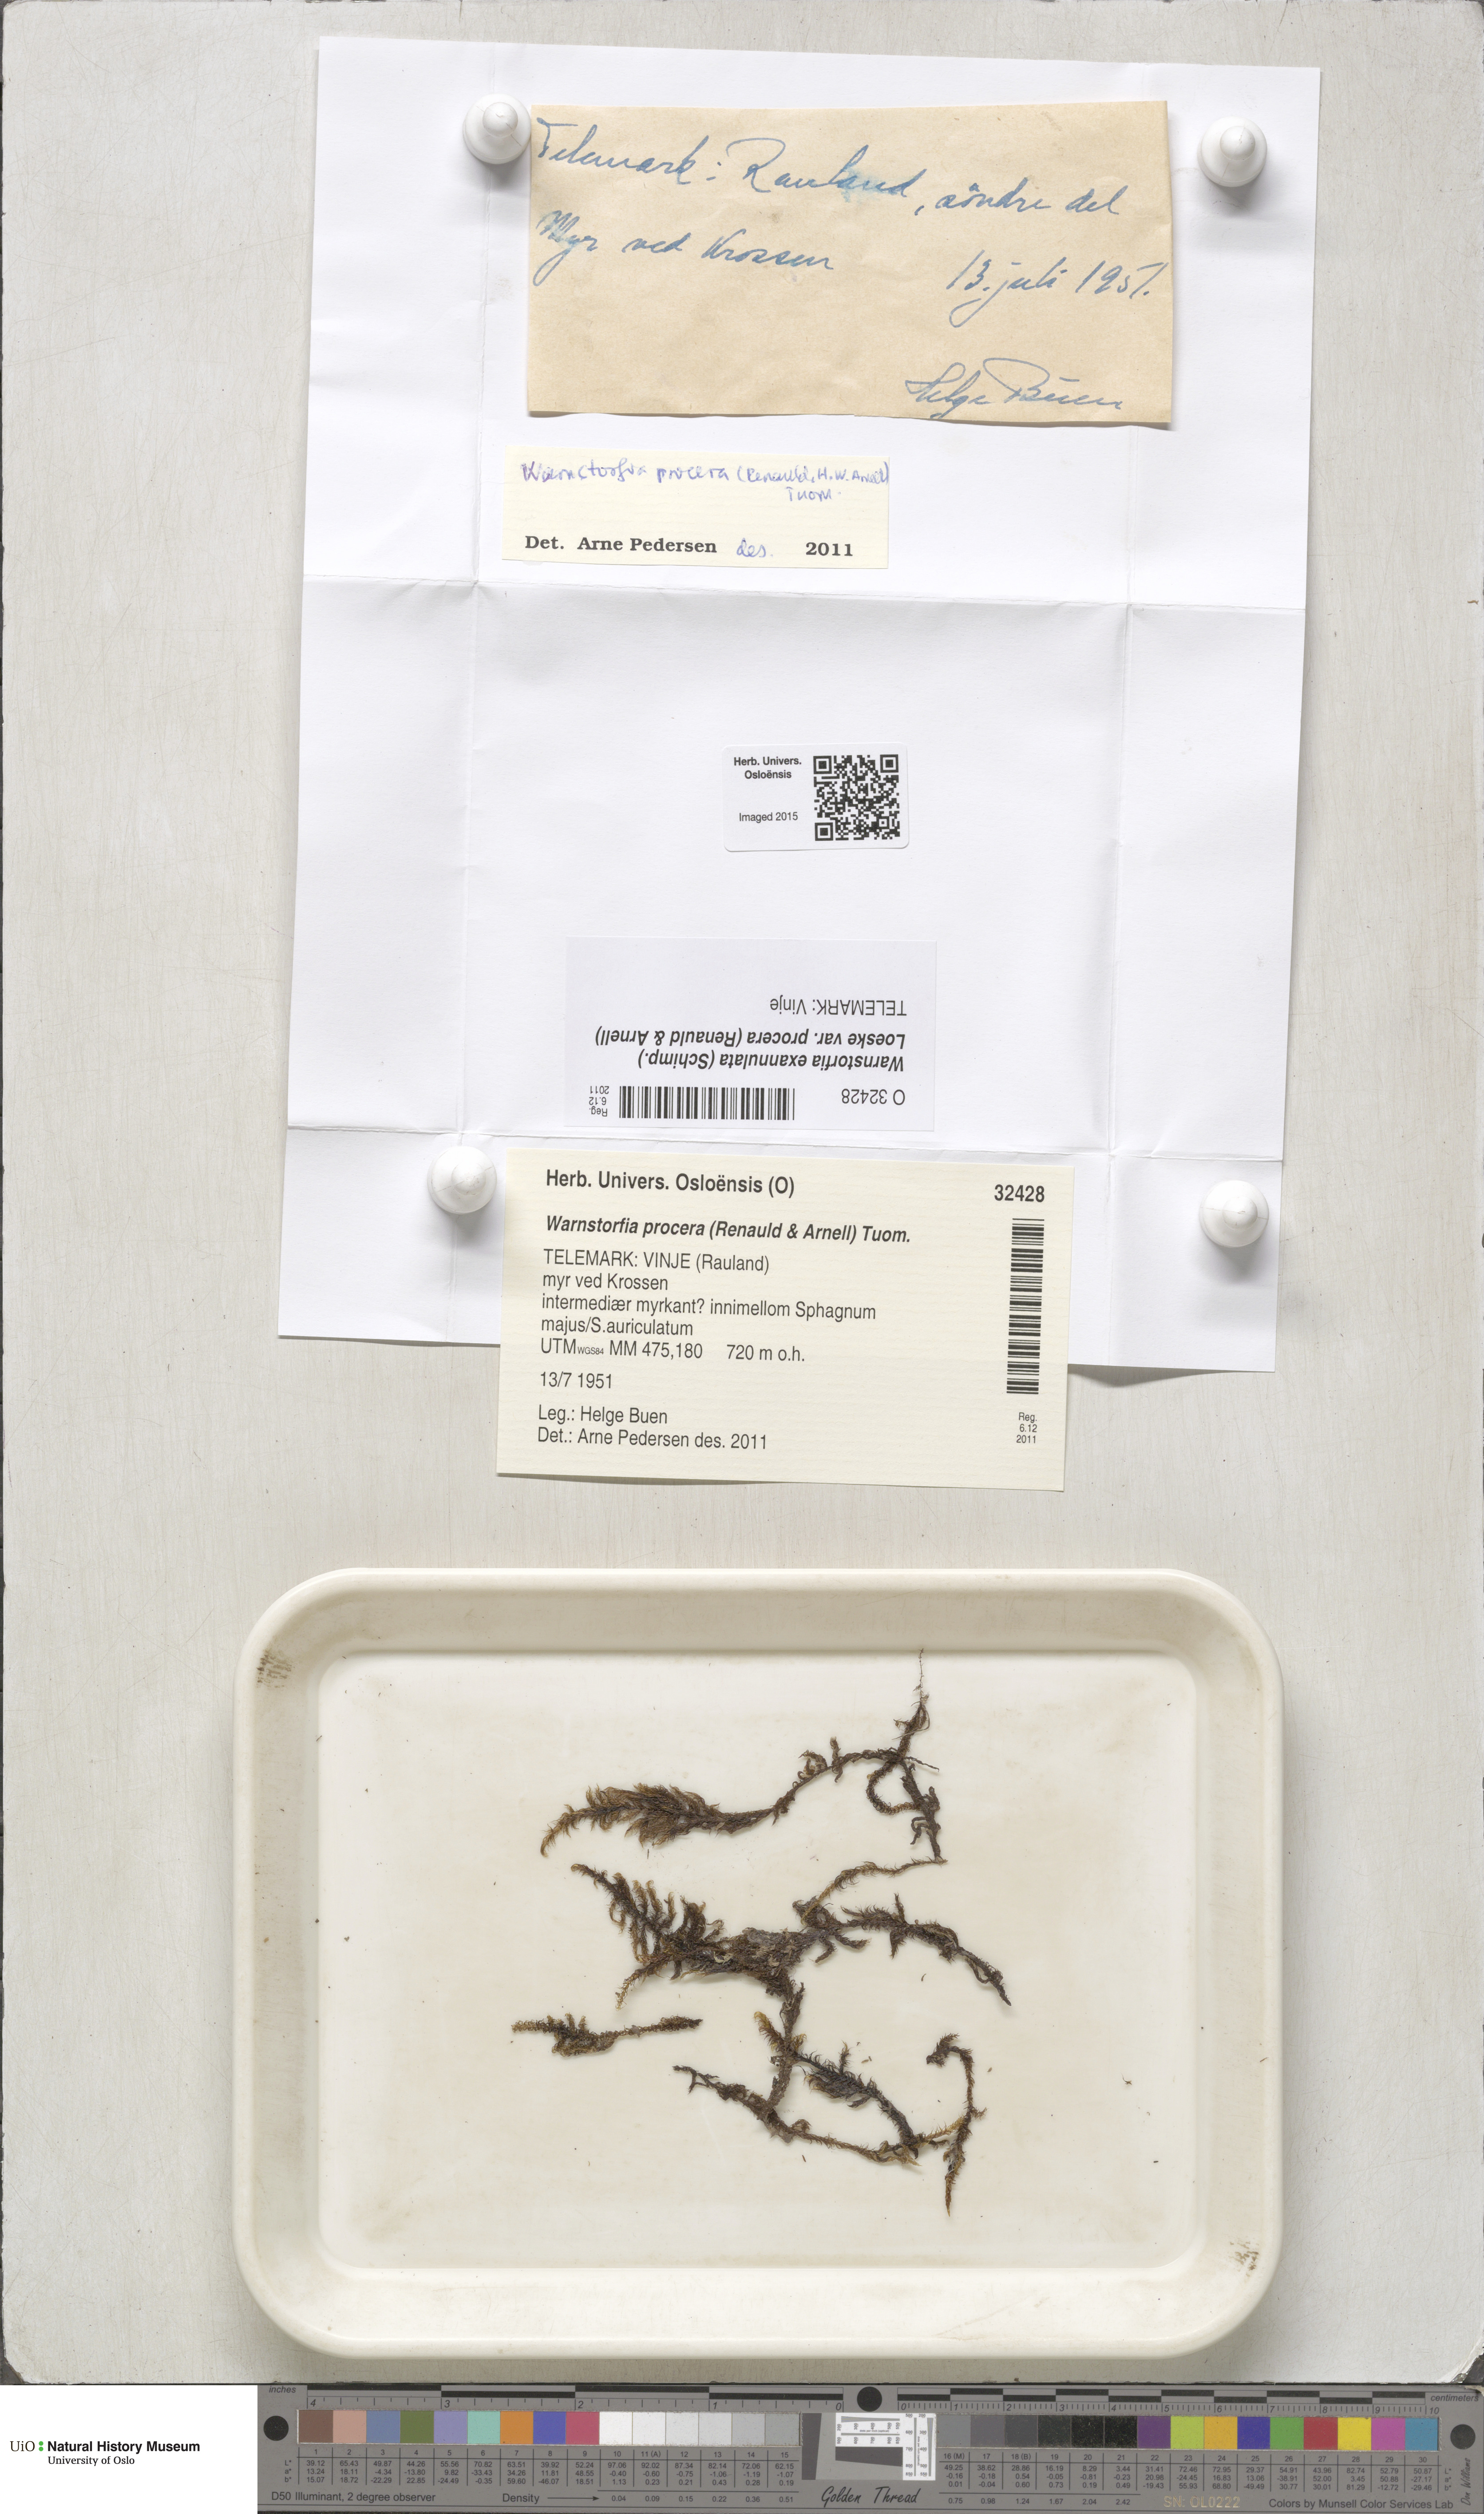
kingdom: Plantae
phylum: Bryophyta
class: Bryopsida
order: Hypnales
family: Calliergonaceae
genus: Sarmentypnum
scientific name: Sarmentypnum procerum
